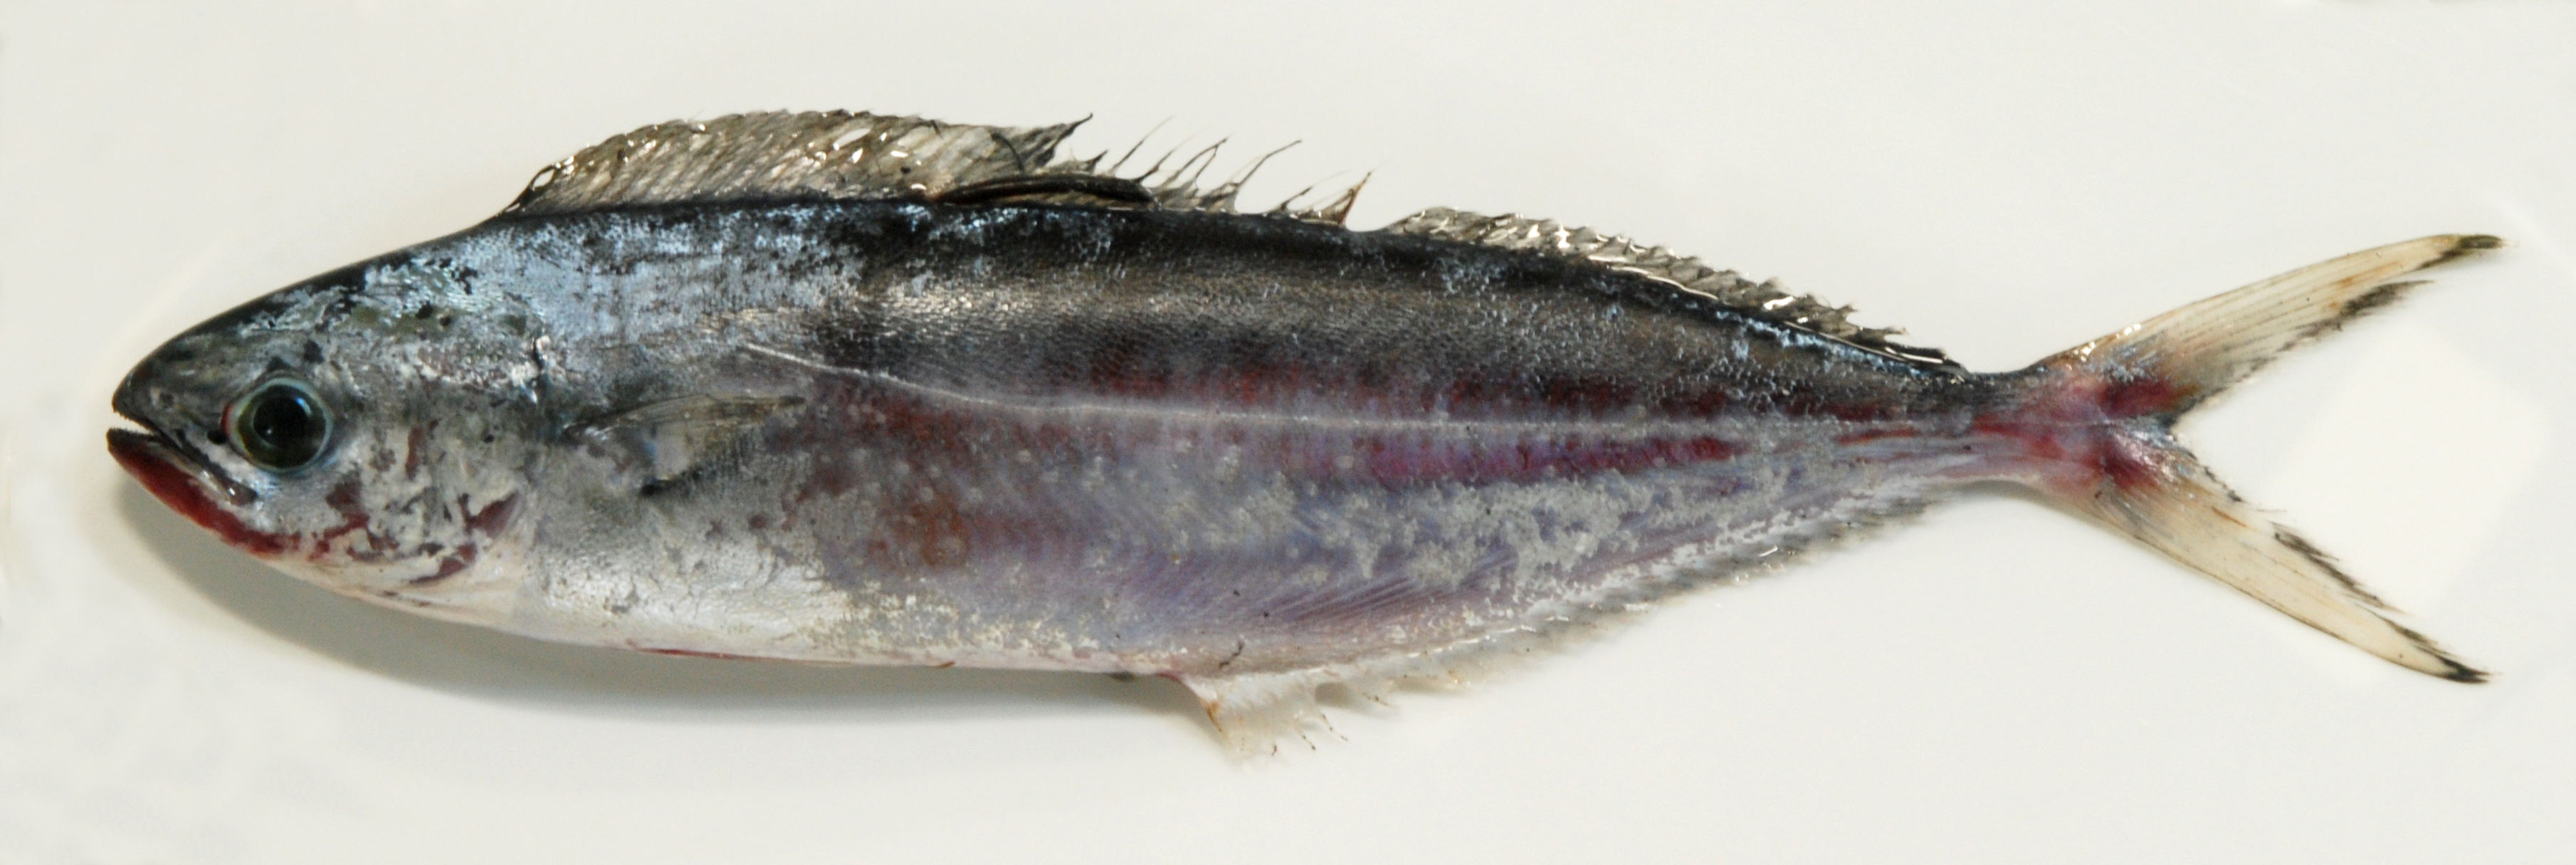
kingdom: Animalia
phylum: Chordata
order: Perciformes
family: Coryphaenidae
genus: Coryphaena
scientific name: Coryphaena equiselis
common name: Pompano dolphinfish
